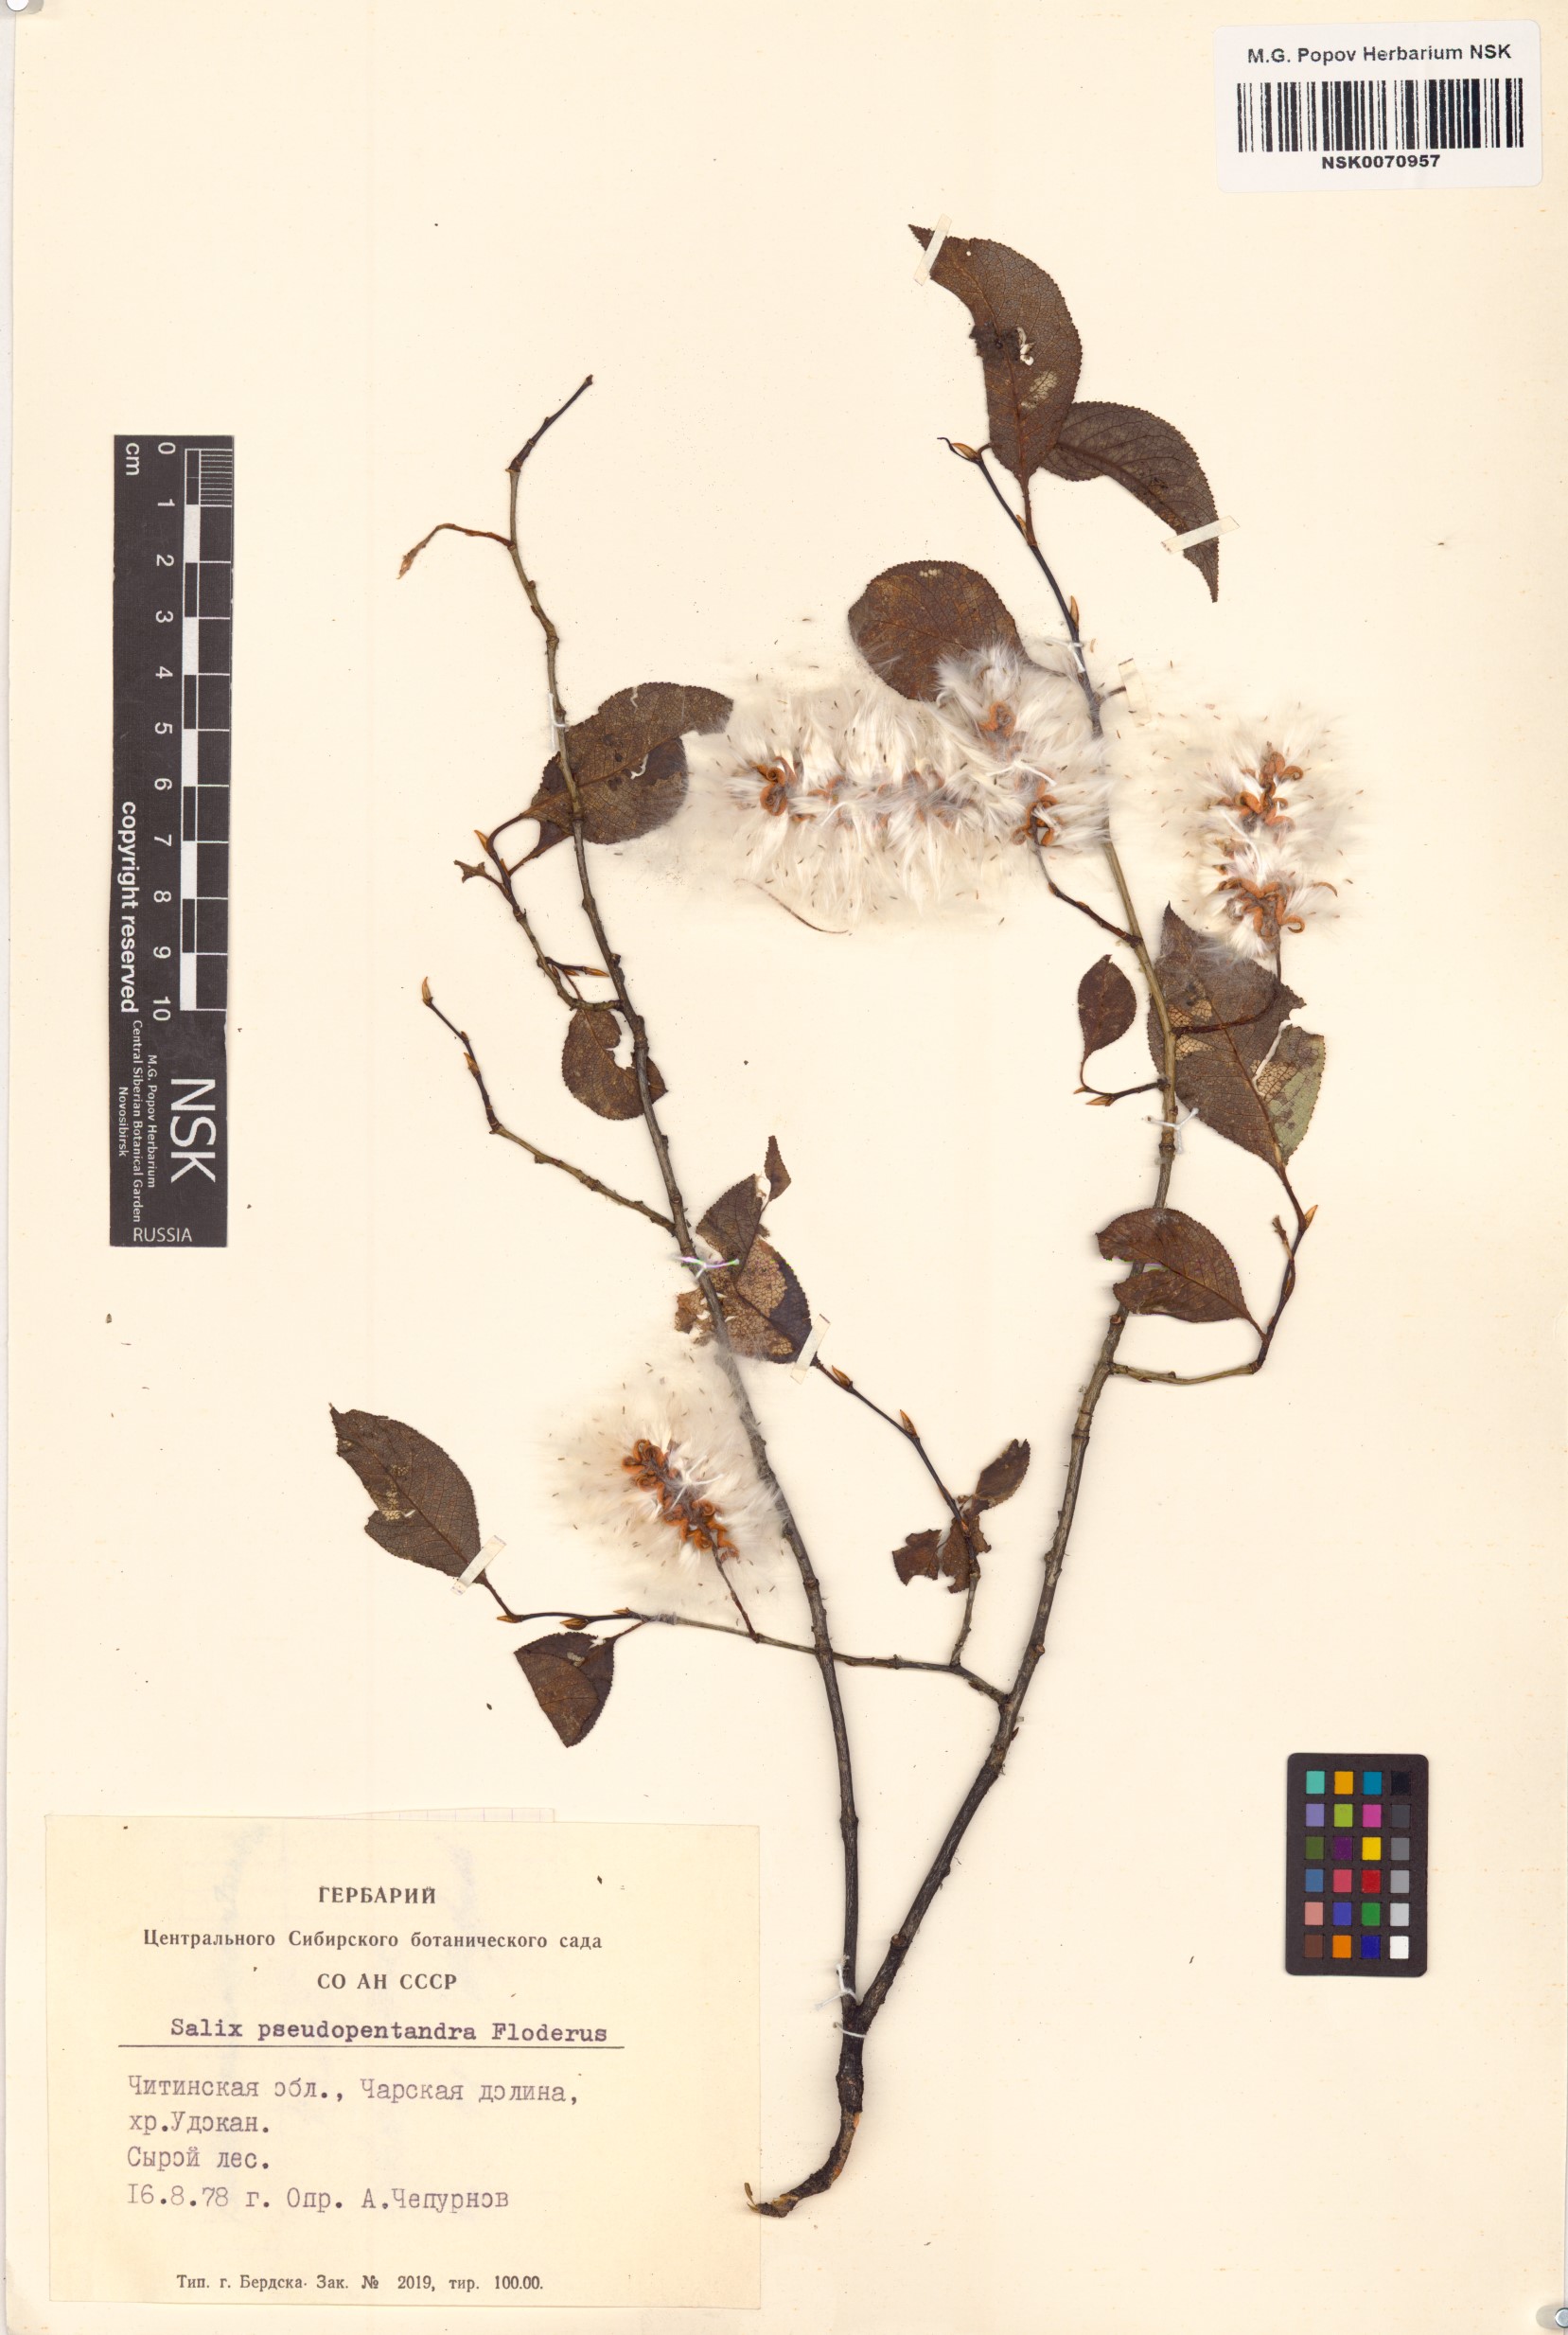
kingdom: Plantae
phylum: Tracheophyta
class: Magnoliopsida
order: Malpighiales
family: Salicaceae
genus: Salix
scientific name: Salix pseudopentandra
